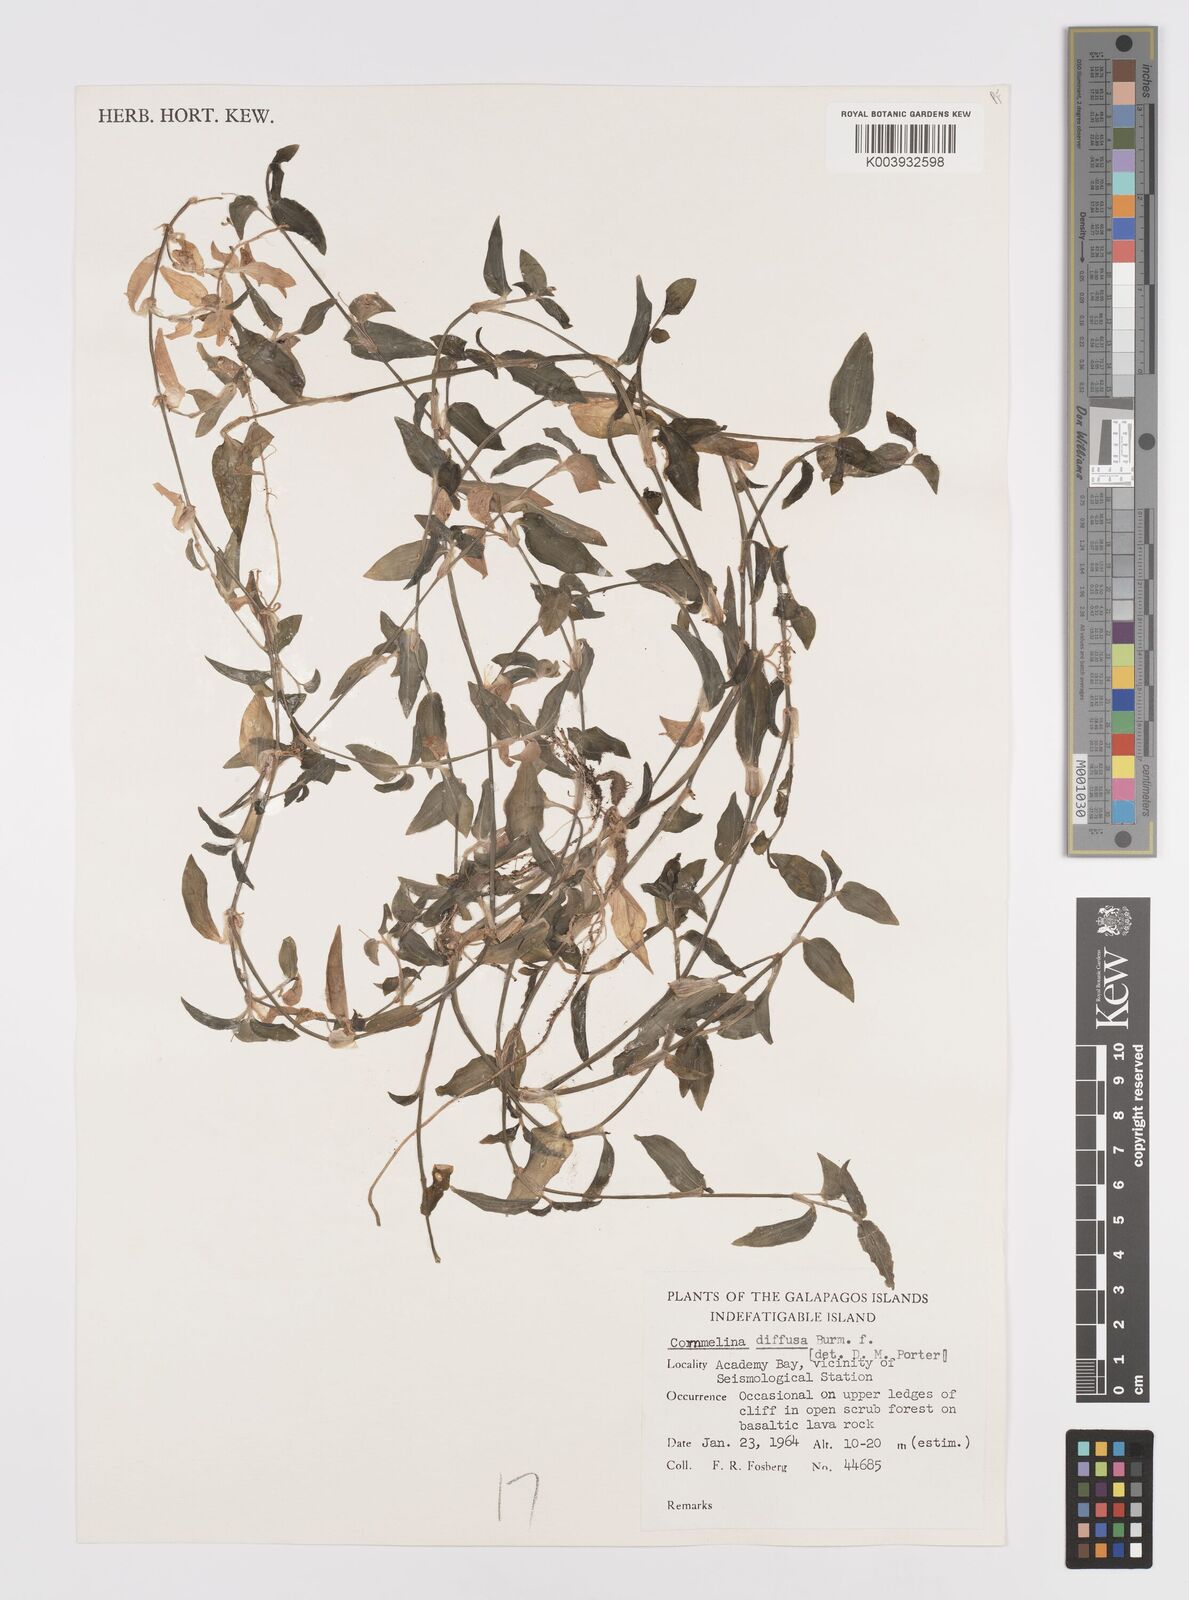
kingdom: Plantae
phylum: Tracheophyta
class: Liliopsida
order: Commelinales
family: Commelinaceae
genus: Commelina
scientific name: Commelina diffusa
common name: Climbing dayflower
